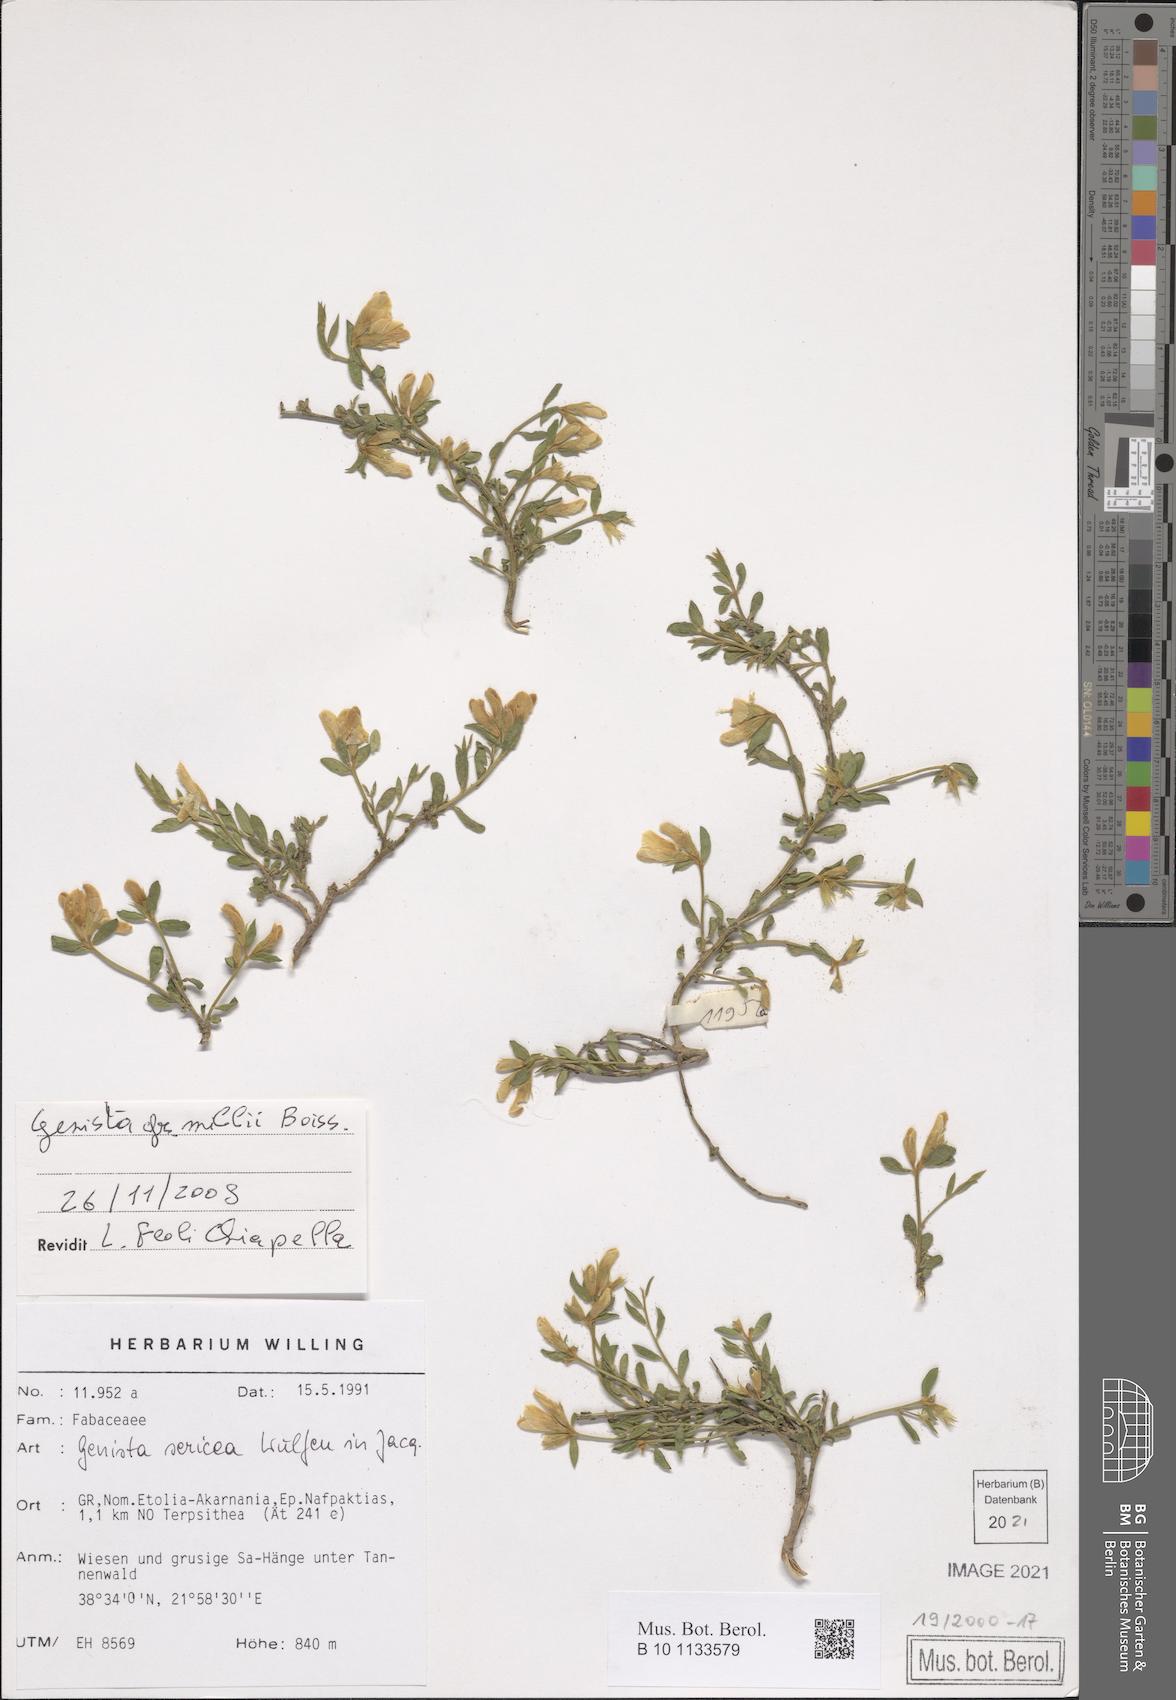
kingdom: Plantae
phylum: Tracheophyta
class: Magnoliopsida
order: Fabales
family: Fabaceae
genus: Genista
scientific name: Genista millii
